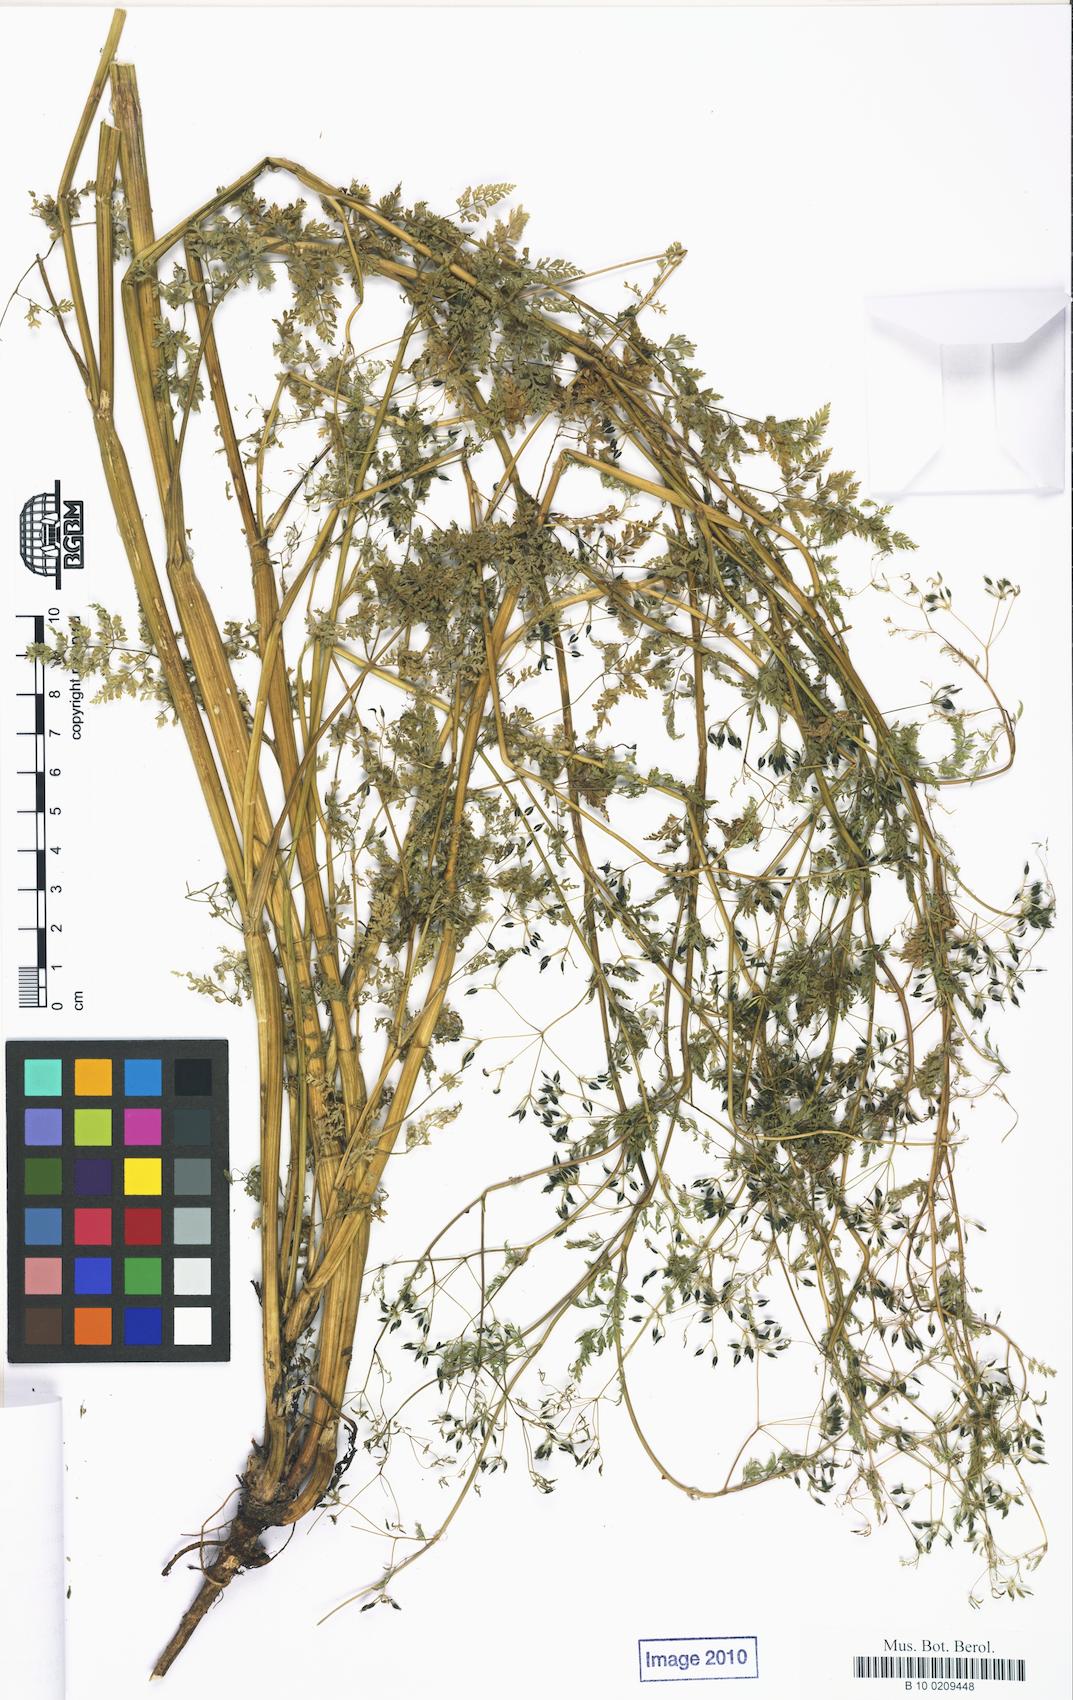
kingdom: Plantae
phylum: Tracheophyta
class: Magnoliopsida
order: Apiales
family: Apiaceae
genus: Anthriscus
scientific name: Anthriscus caucalis
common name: Bur chervil
